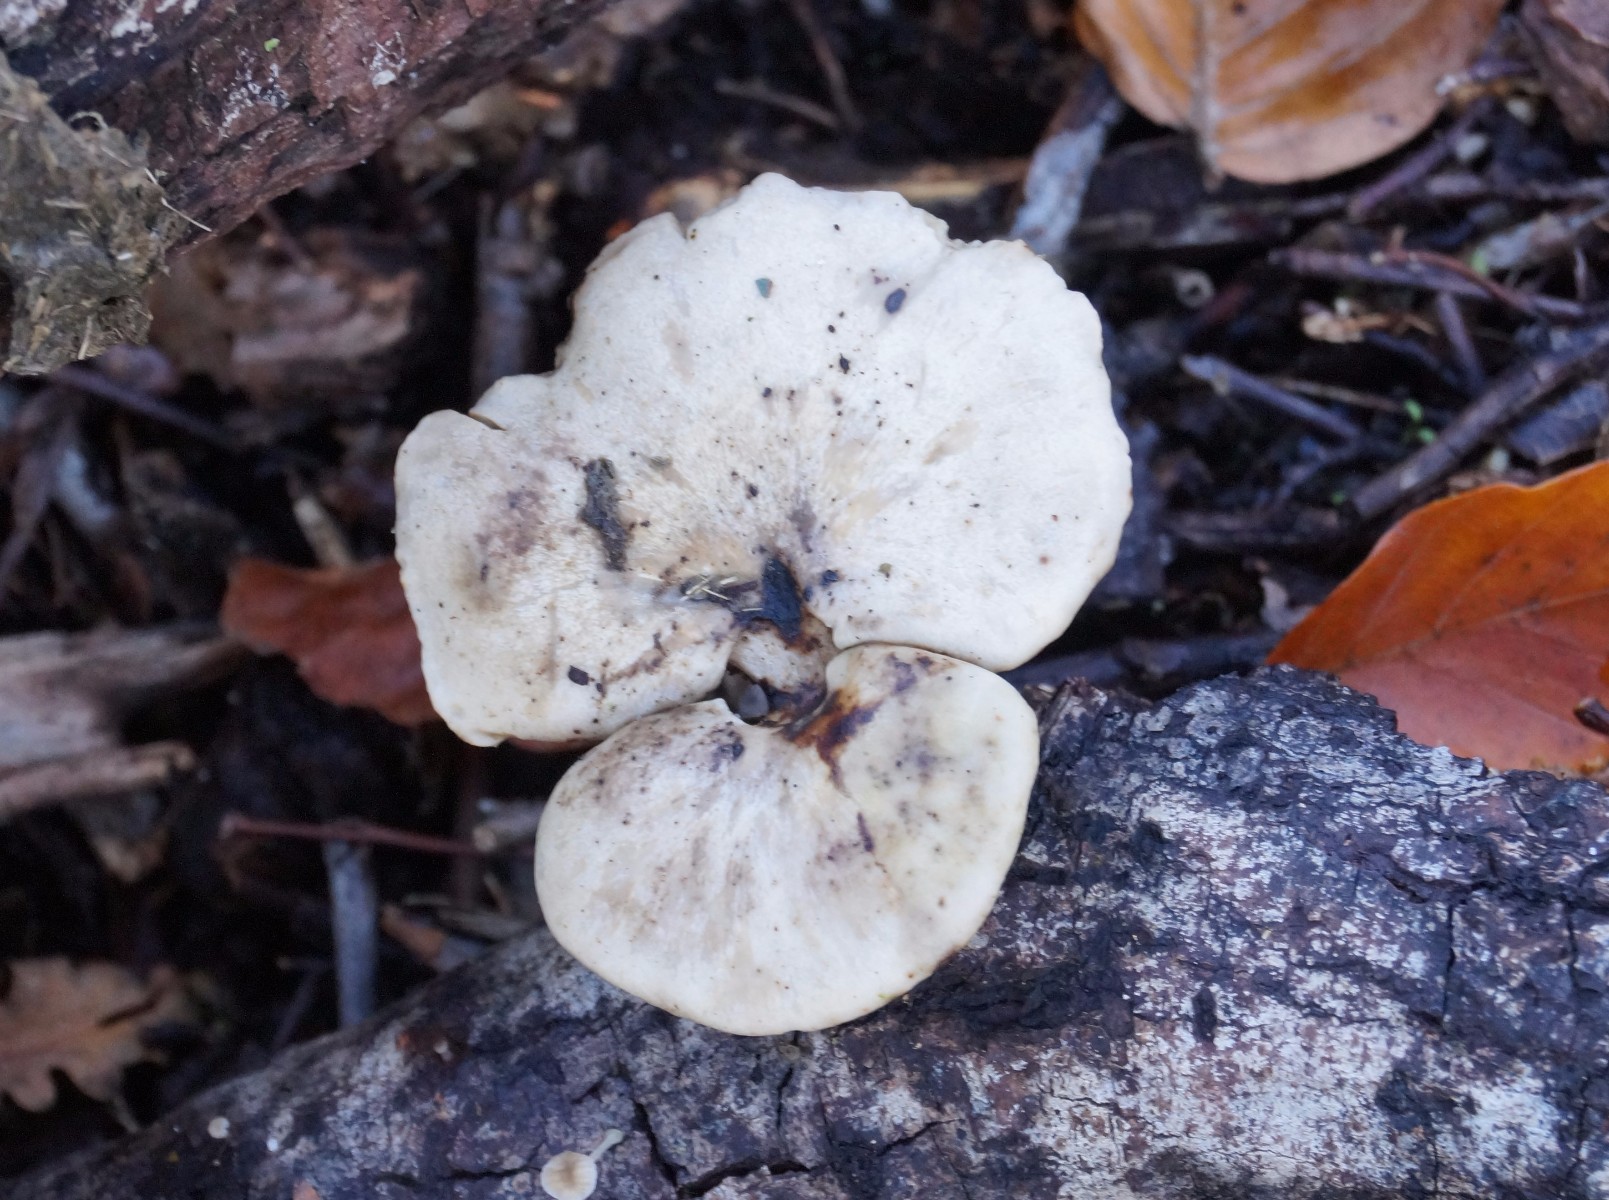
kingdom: Fungi
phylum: Basidiomycota
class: Agaricomycetes
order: Polyporales
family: Polyporaceae
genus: Cerioporus
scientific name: Cerioporus varius
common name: foranderlig stilkporesvamp
